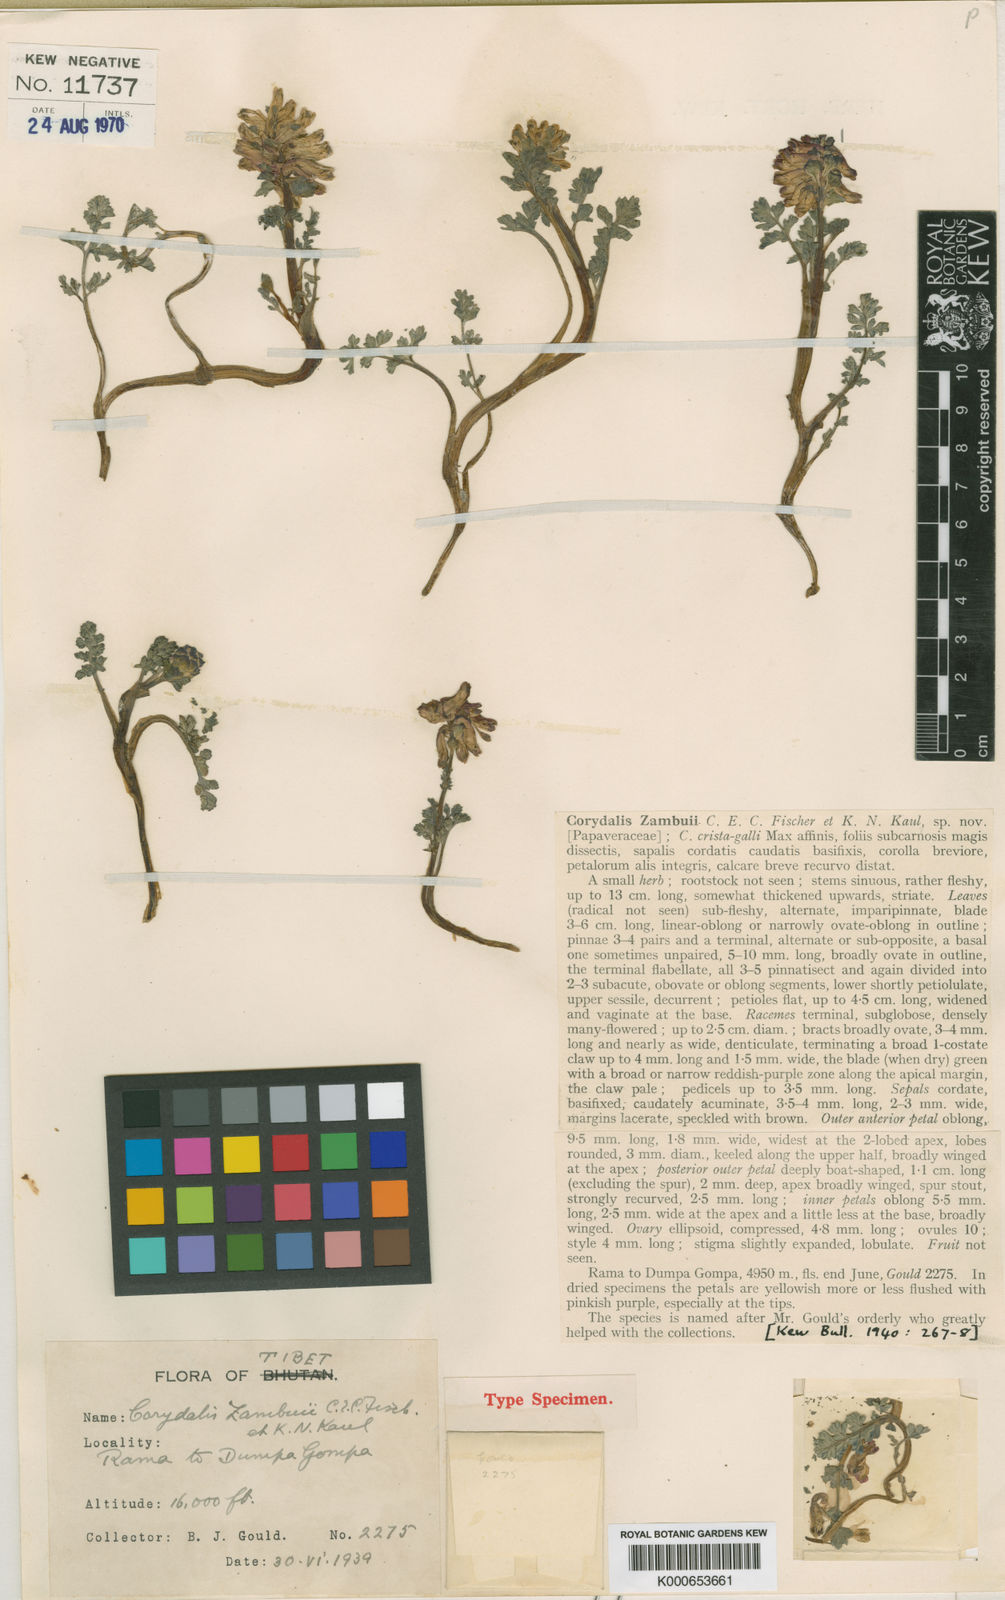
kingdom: Plantae
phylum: Tracheophyta
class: Magnoliopsida
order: Ranunculales
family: Papaveraceae
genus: Corydalis
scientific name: Corydalis conspersa
